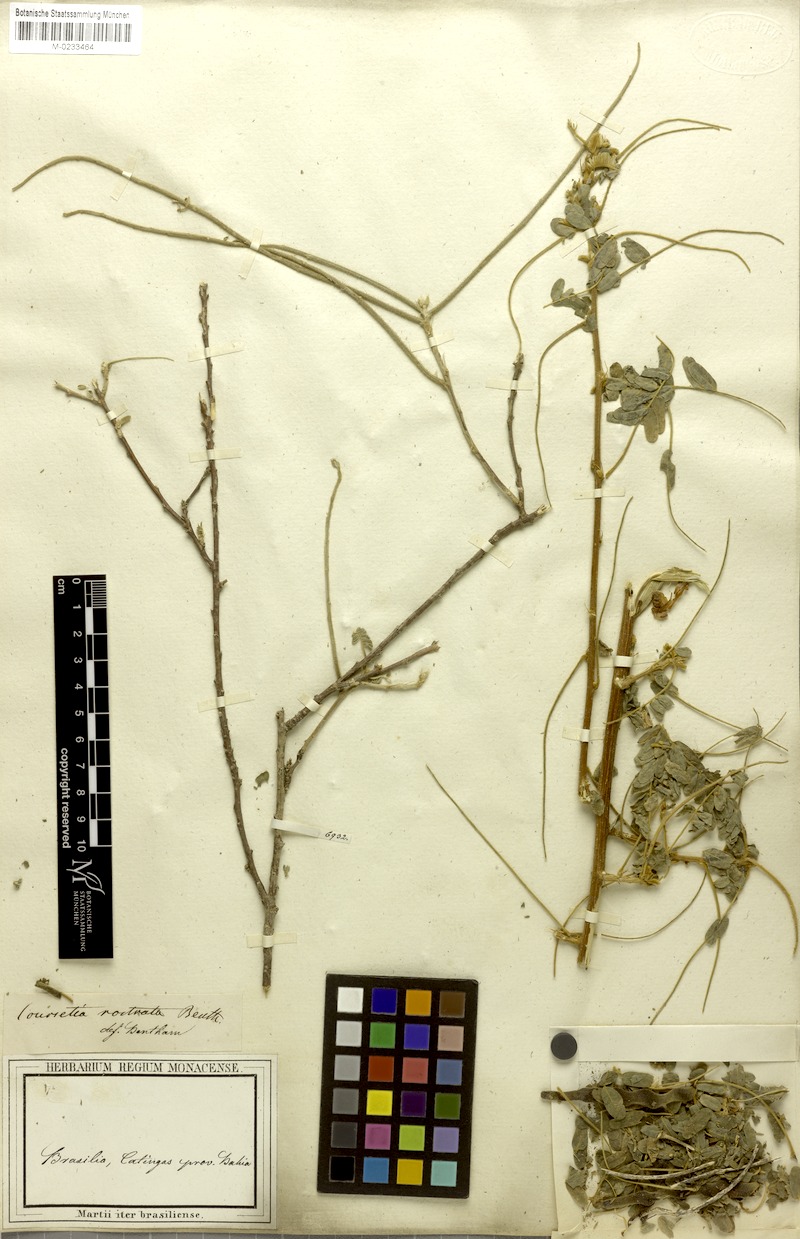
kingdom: Plantae
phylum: Tracheophyta
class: Magnoliopsida
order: Fabales
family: Fabaceae
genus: Coursetia
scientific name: Coursetia rostrata
